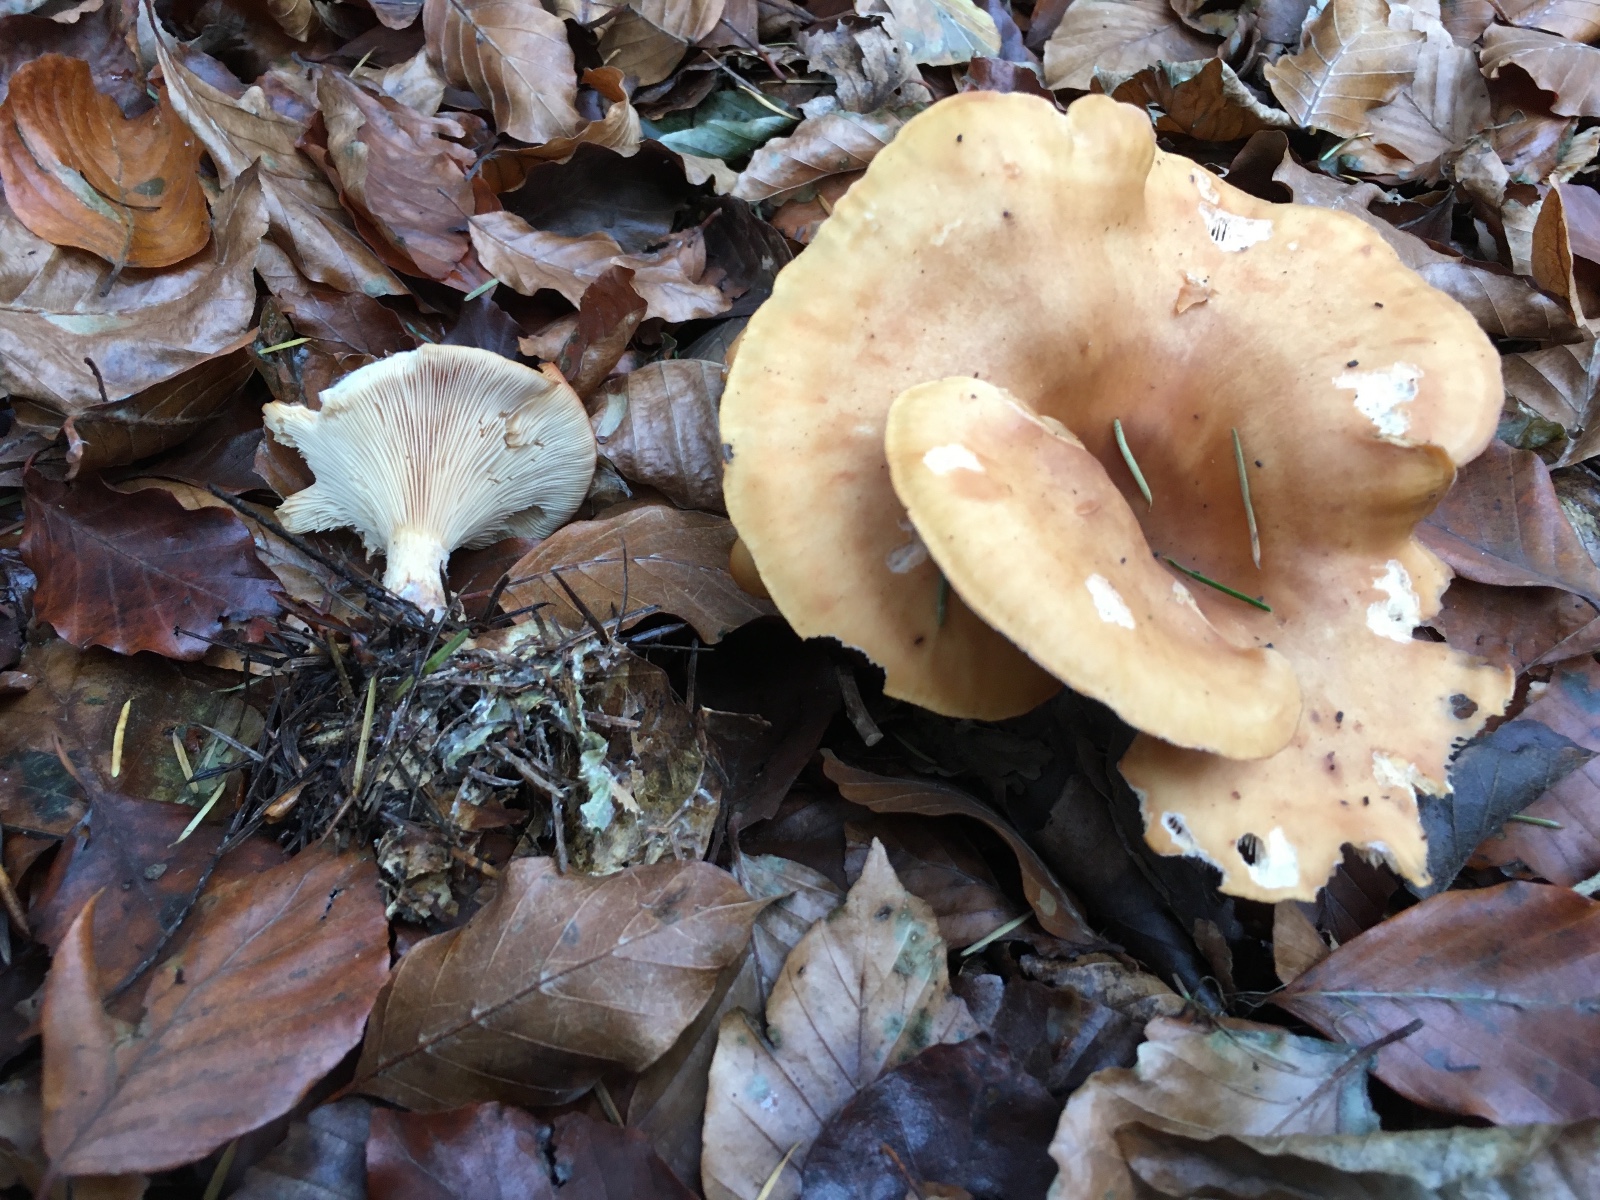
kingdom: Fungi
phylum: Basidiomycota
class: Agaricomycetes
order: Agaricales
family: Tricholomataceae
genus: Paralepista
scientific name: Paralepista flaccida
